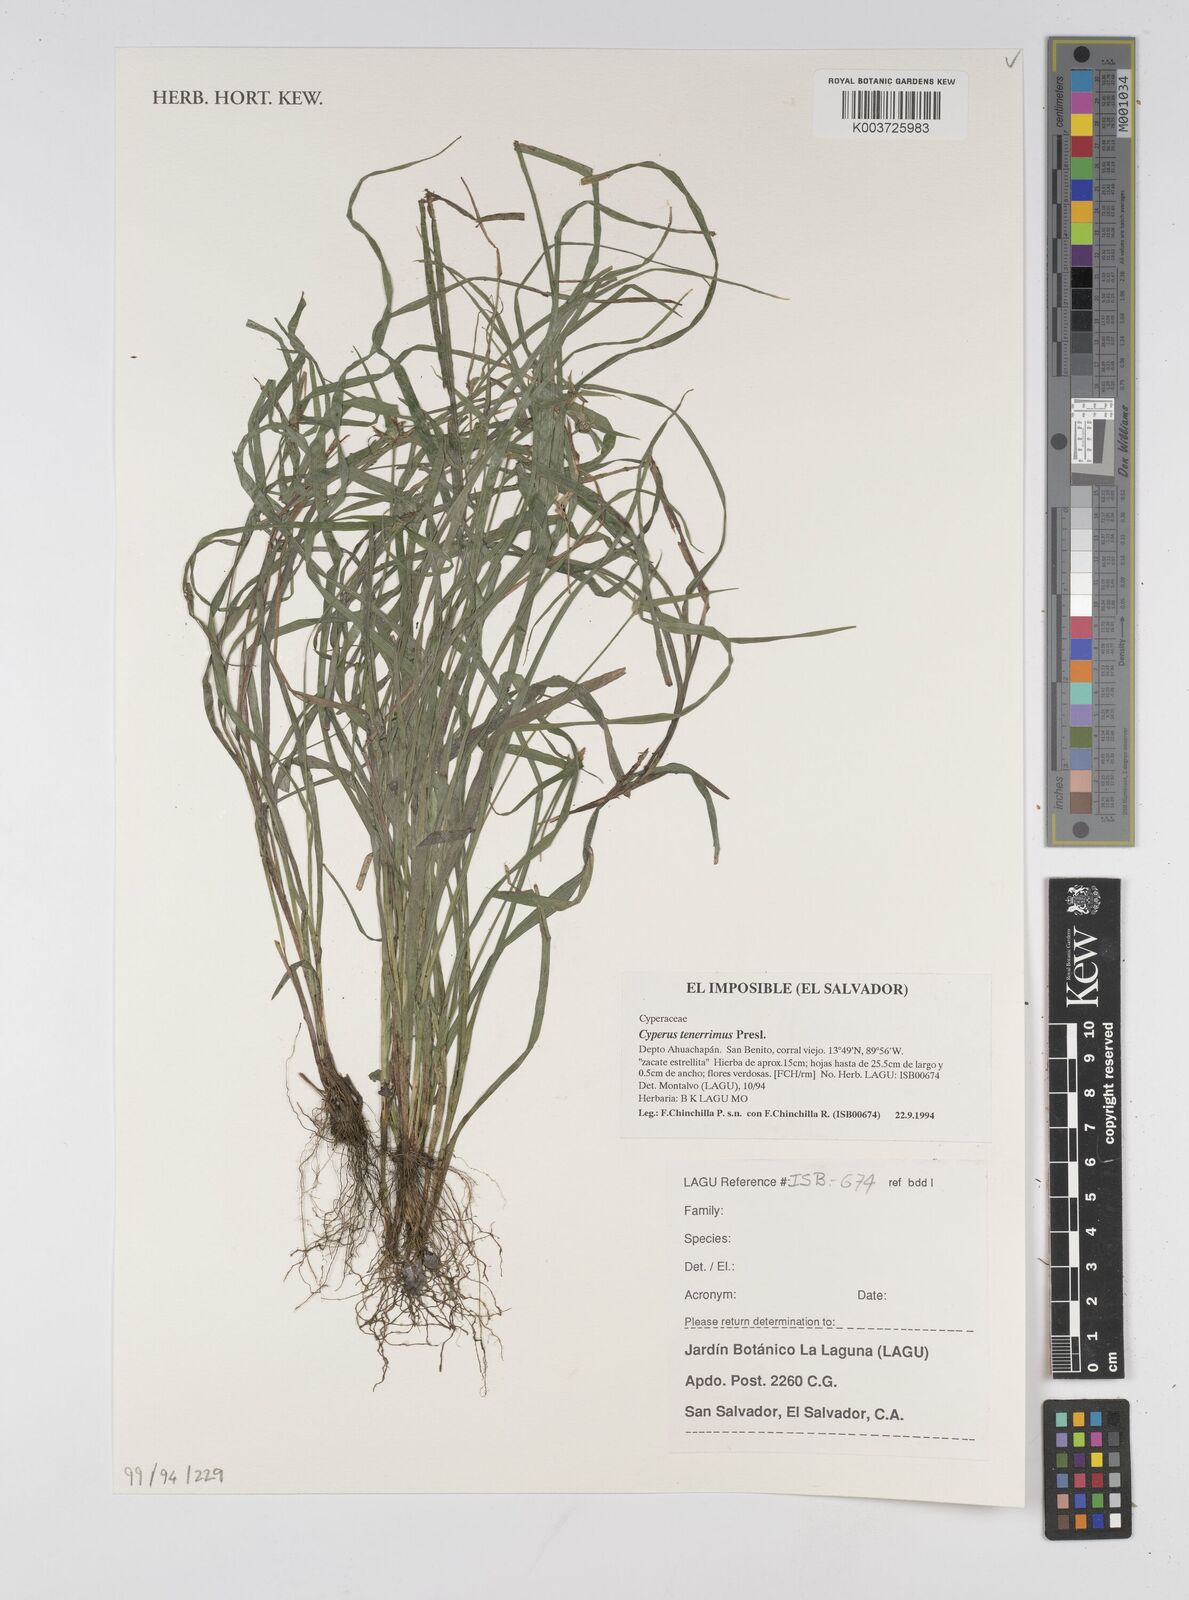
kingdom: Plantae
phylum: Tracheophyta
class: Liliopsida
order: Poales
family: Cyperaceae
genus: Cyperus
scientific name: Cyperus tenerrimus
